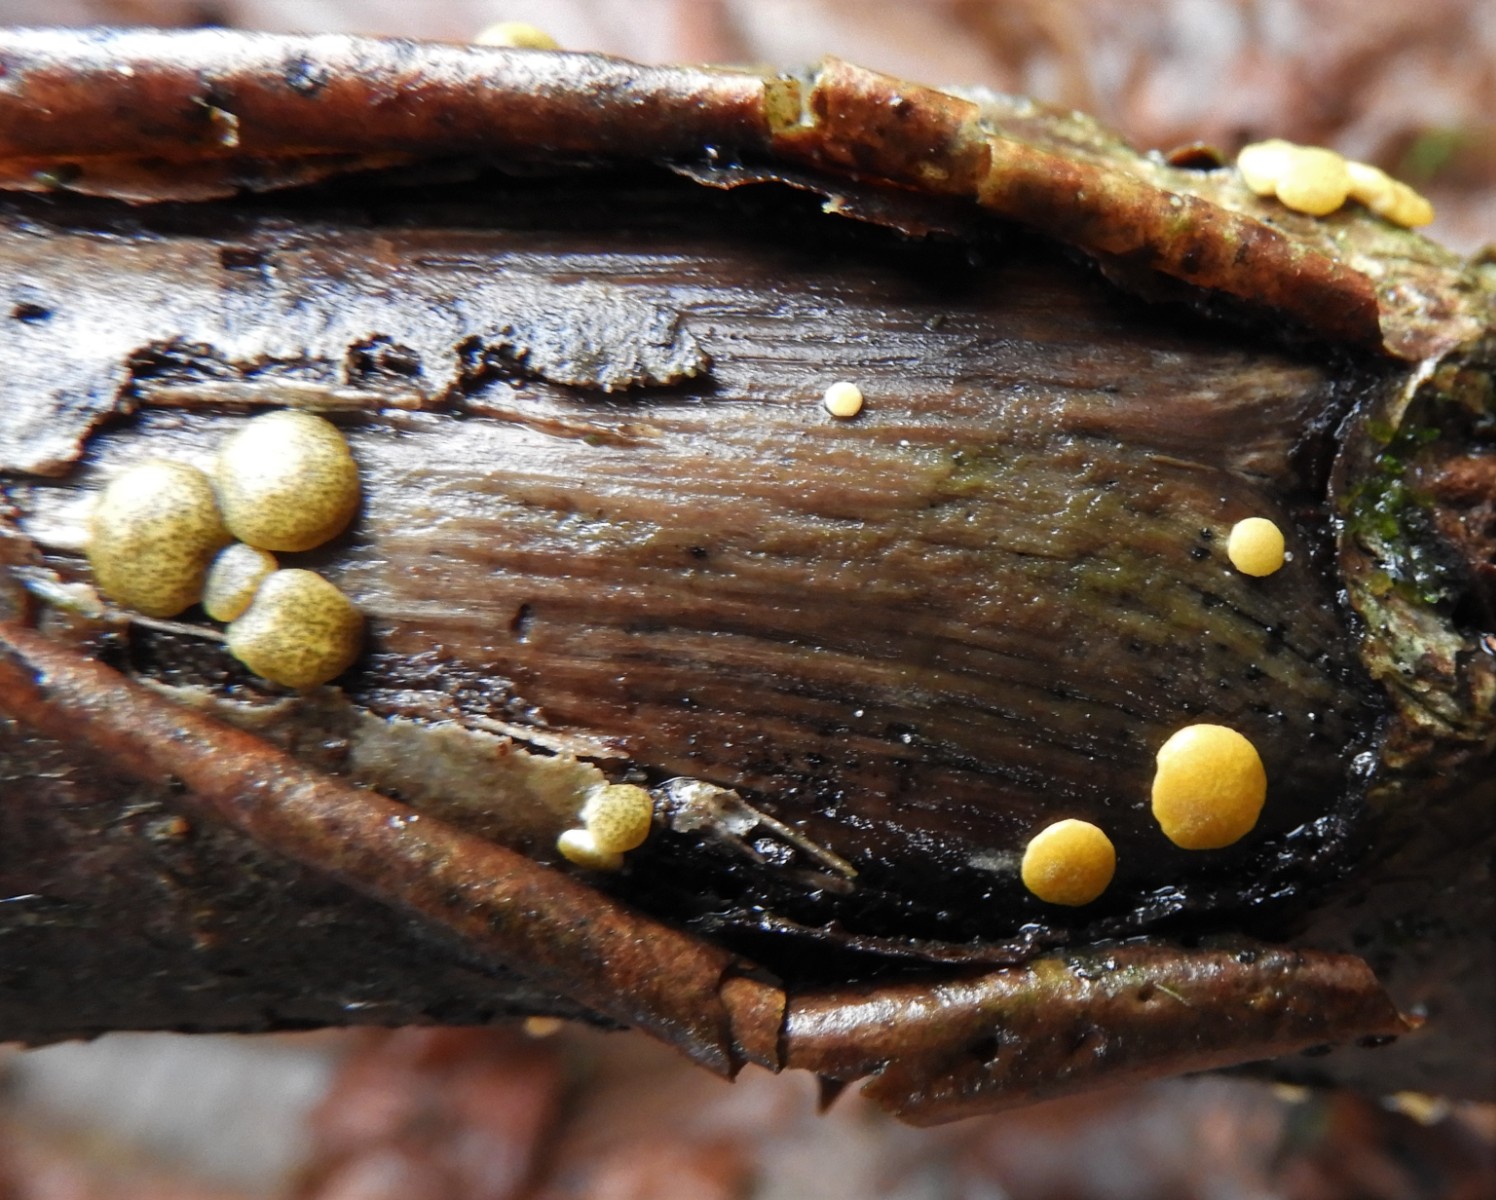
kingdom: Fungi
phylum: Ascomycota
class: Sordariomycetes
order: Hypocreales
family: Hypocreaceae
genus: Trichoderma
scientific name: Trichoderma aureoviride
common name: æggegul kødkerne
